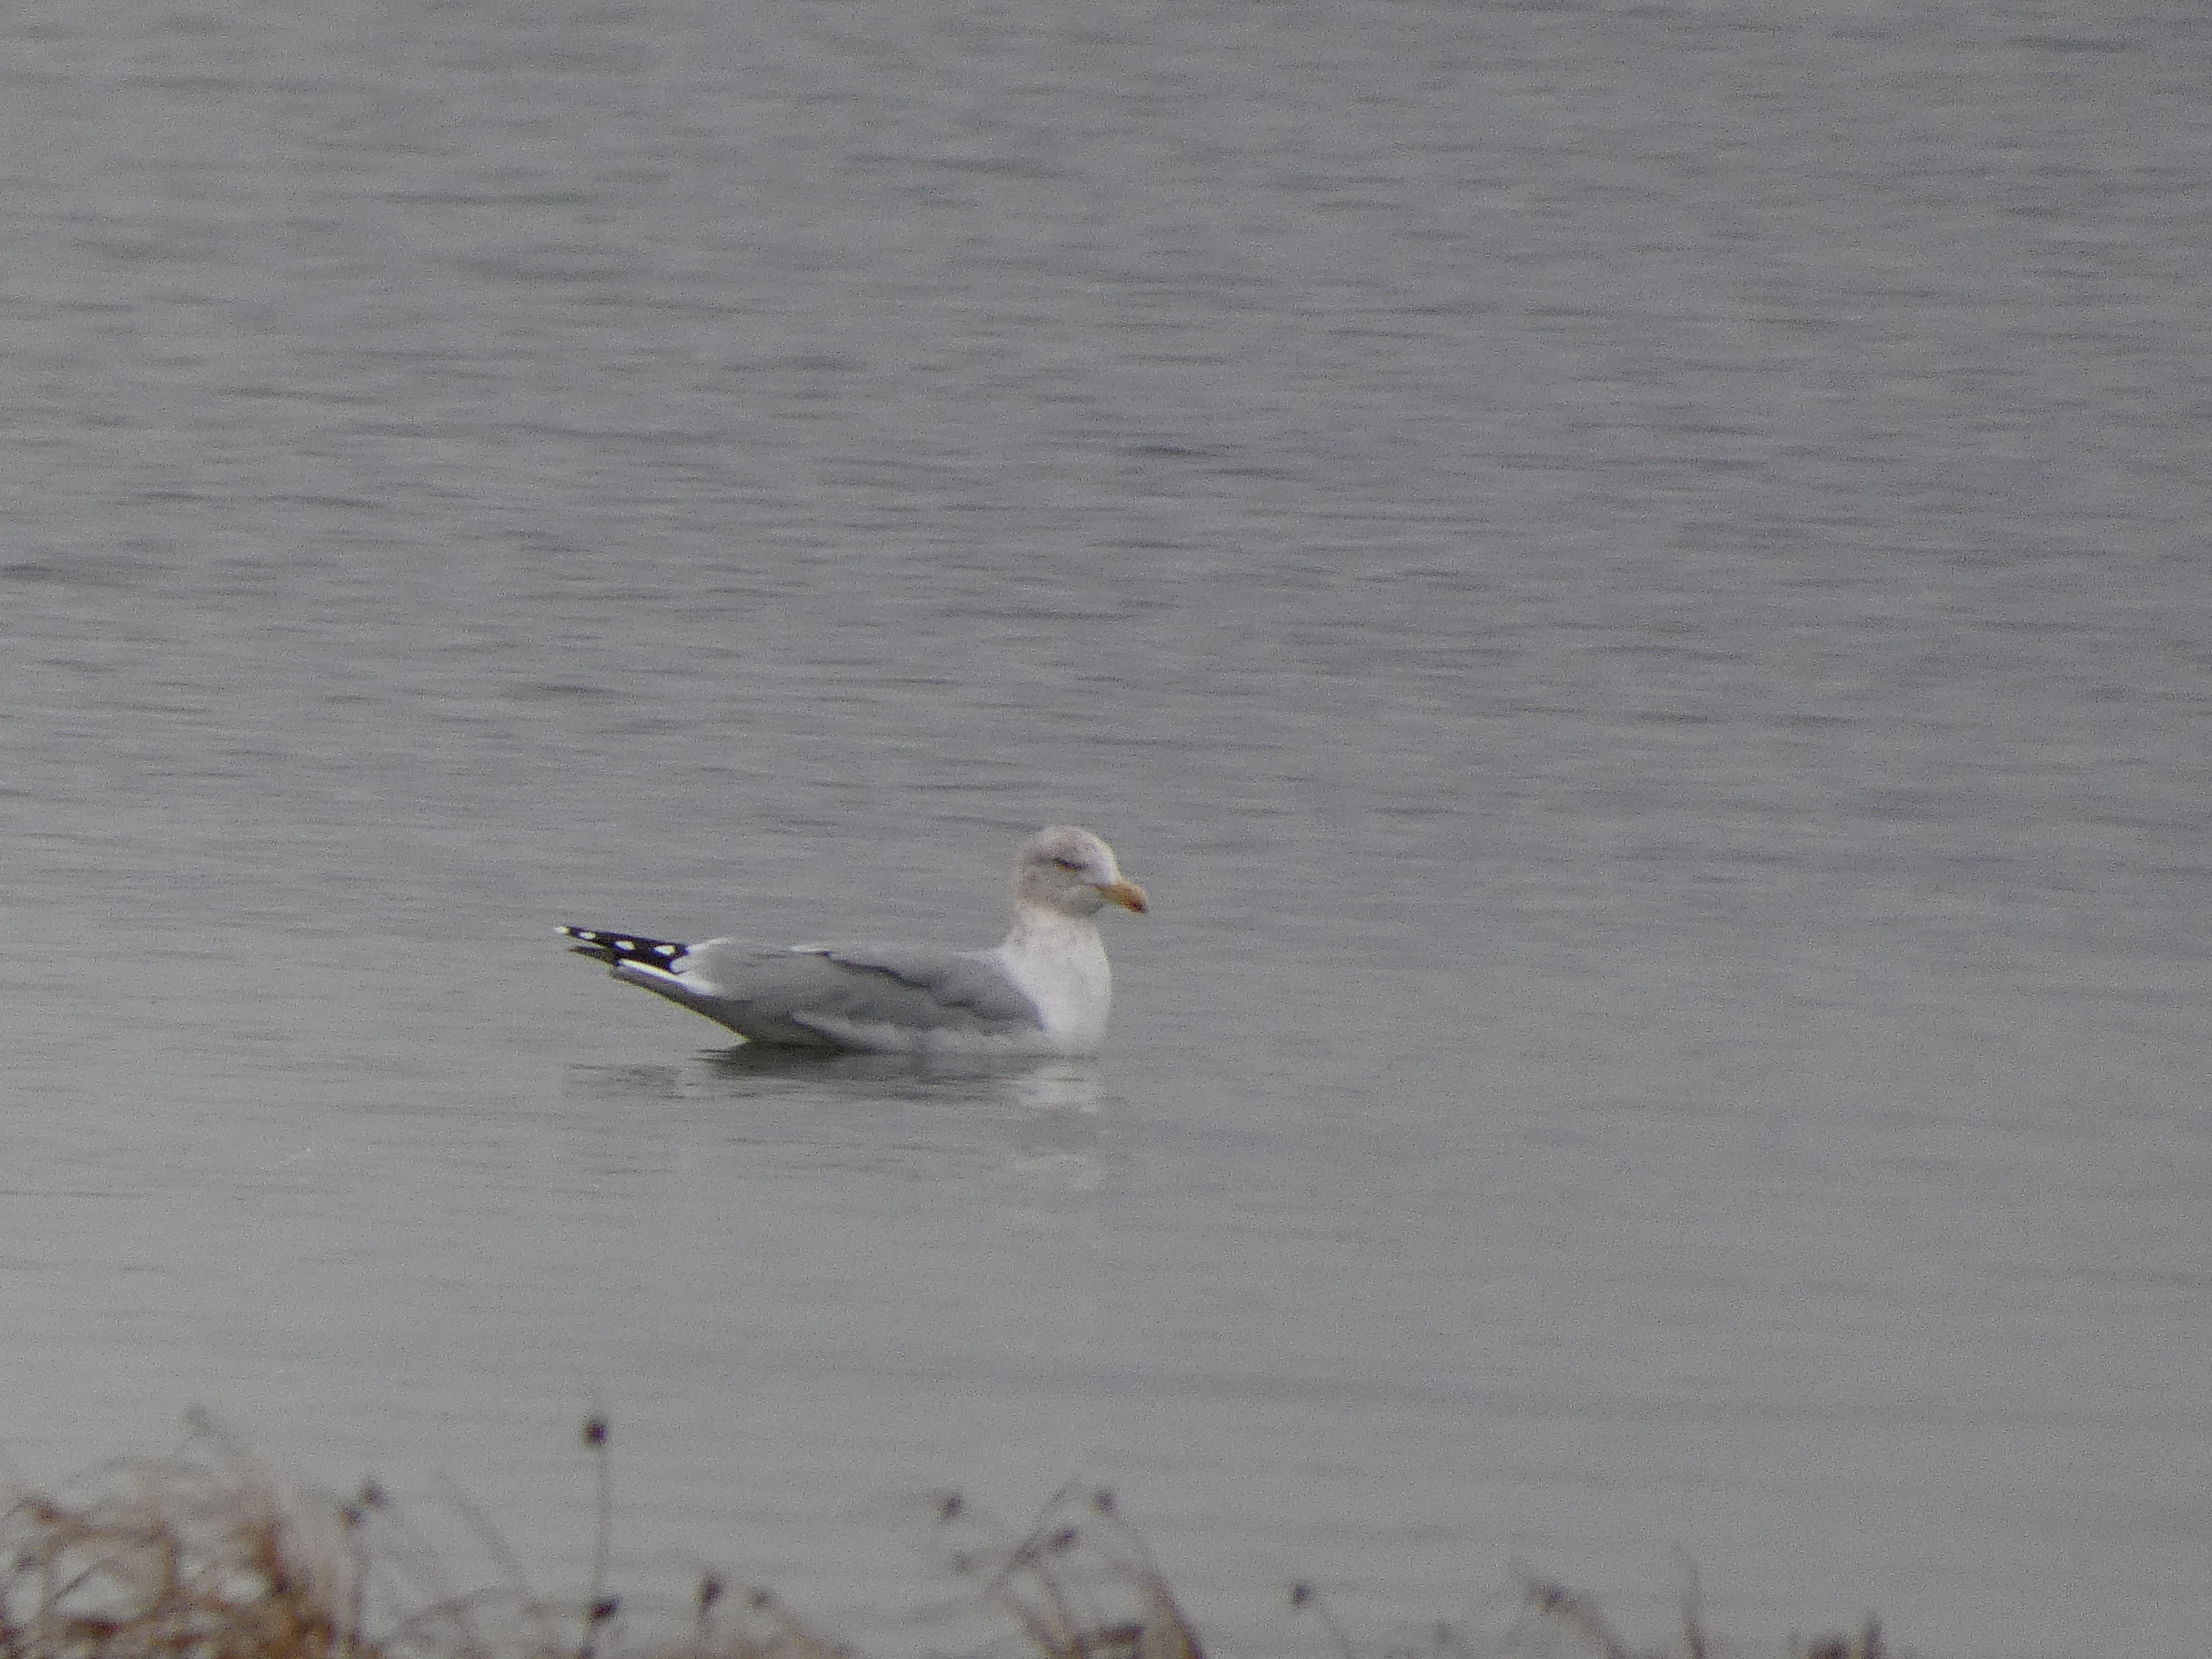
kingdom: Animalia
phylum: Chordata
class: Aves
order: Charadriiformes
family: Laridae
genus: Larus
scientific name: Larus argentatus
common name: Sølvmåge
